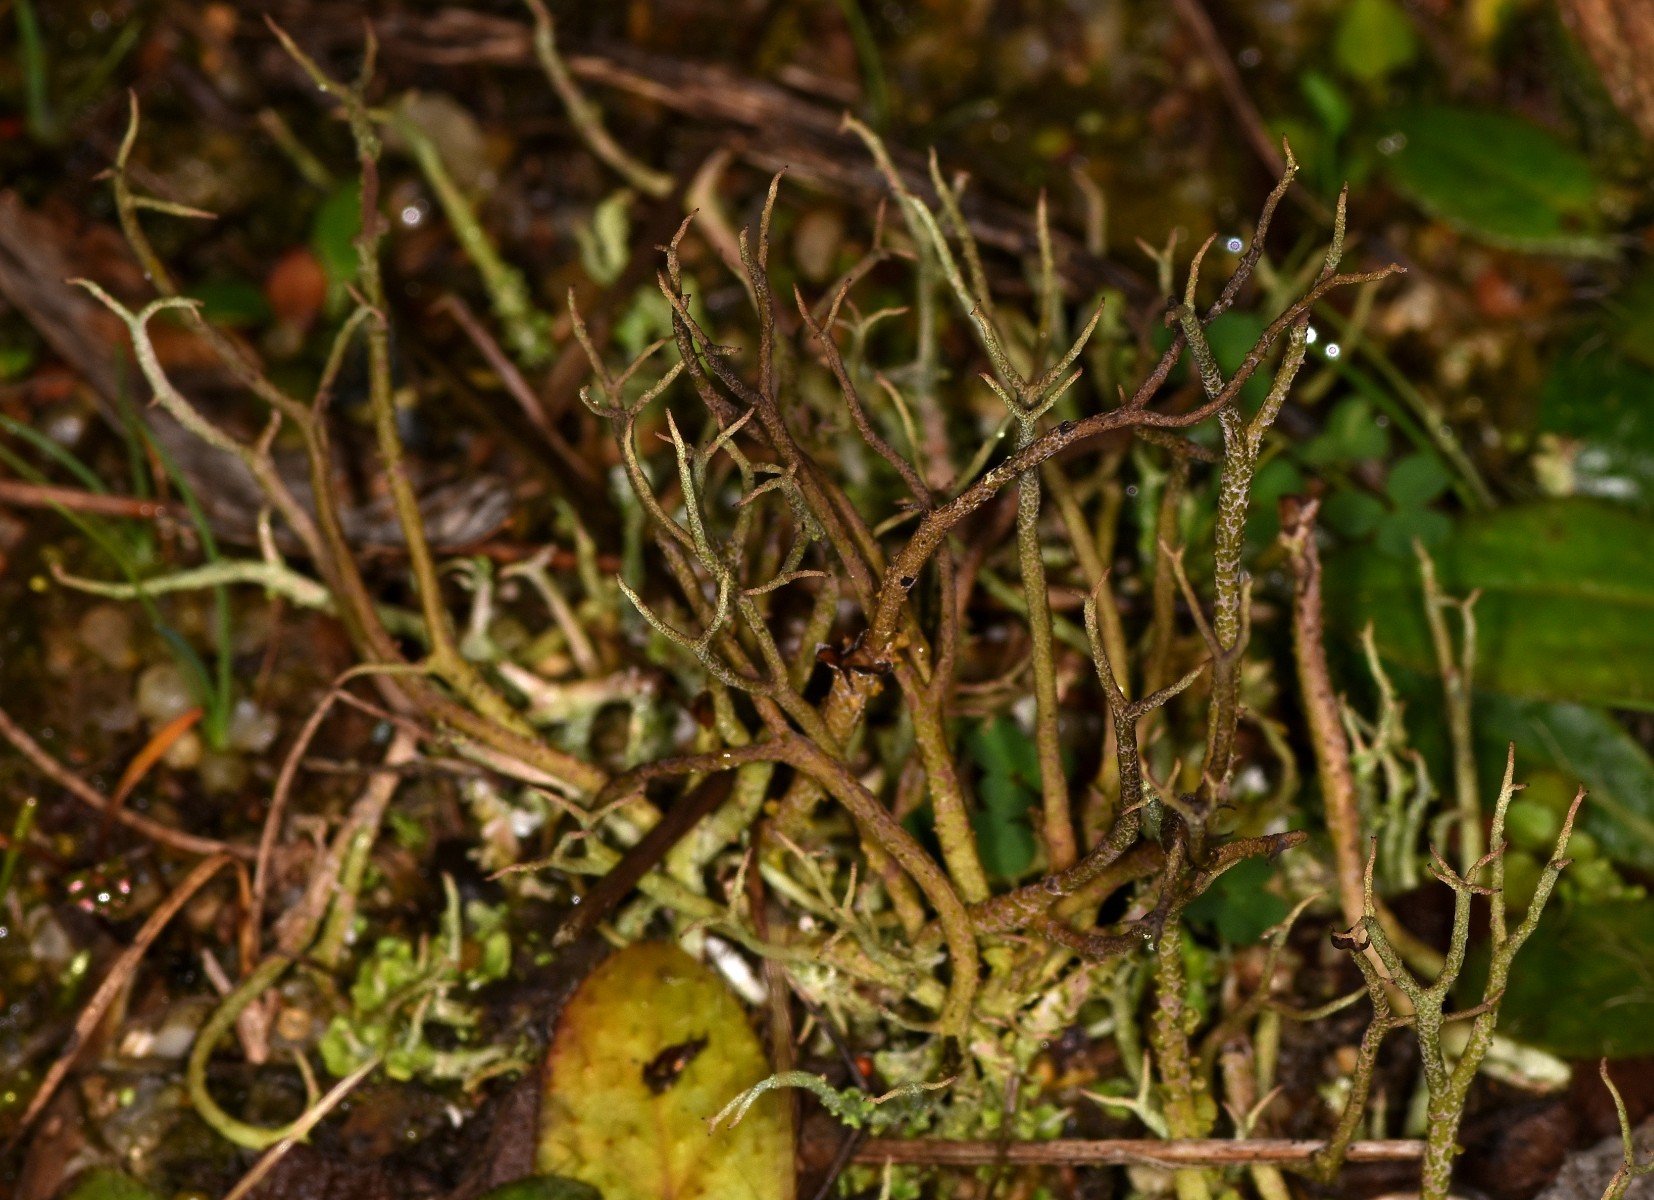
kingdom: Fungi
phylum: Ascomycota
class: Lecanoromycetes
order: Lecanorales
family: Cladoniaceae
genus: Cladonia
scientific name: Cladonia furcata
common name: kløftet bægerlav
